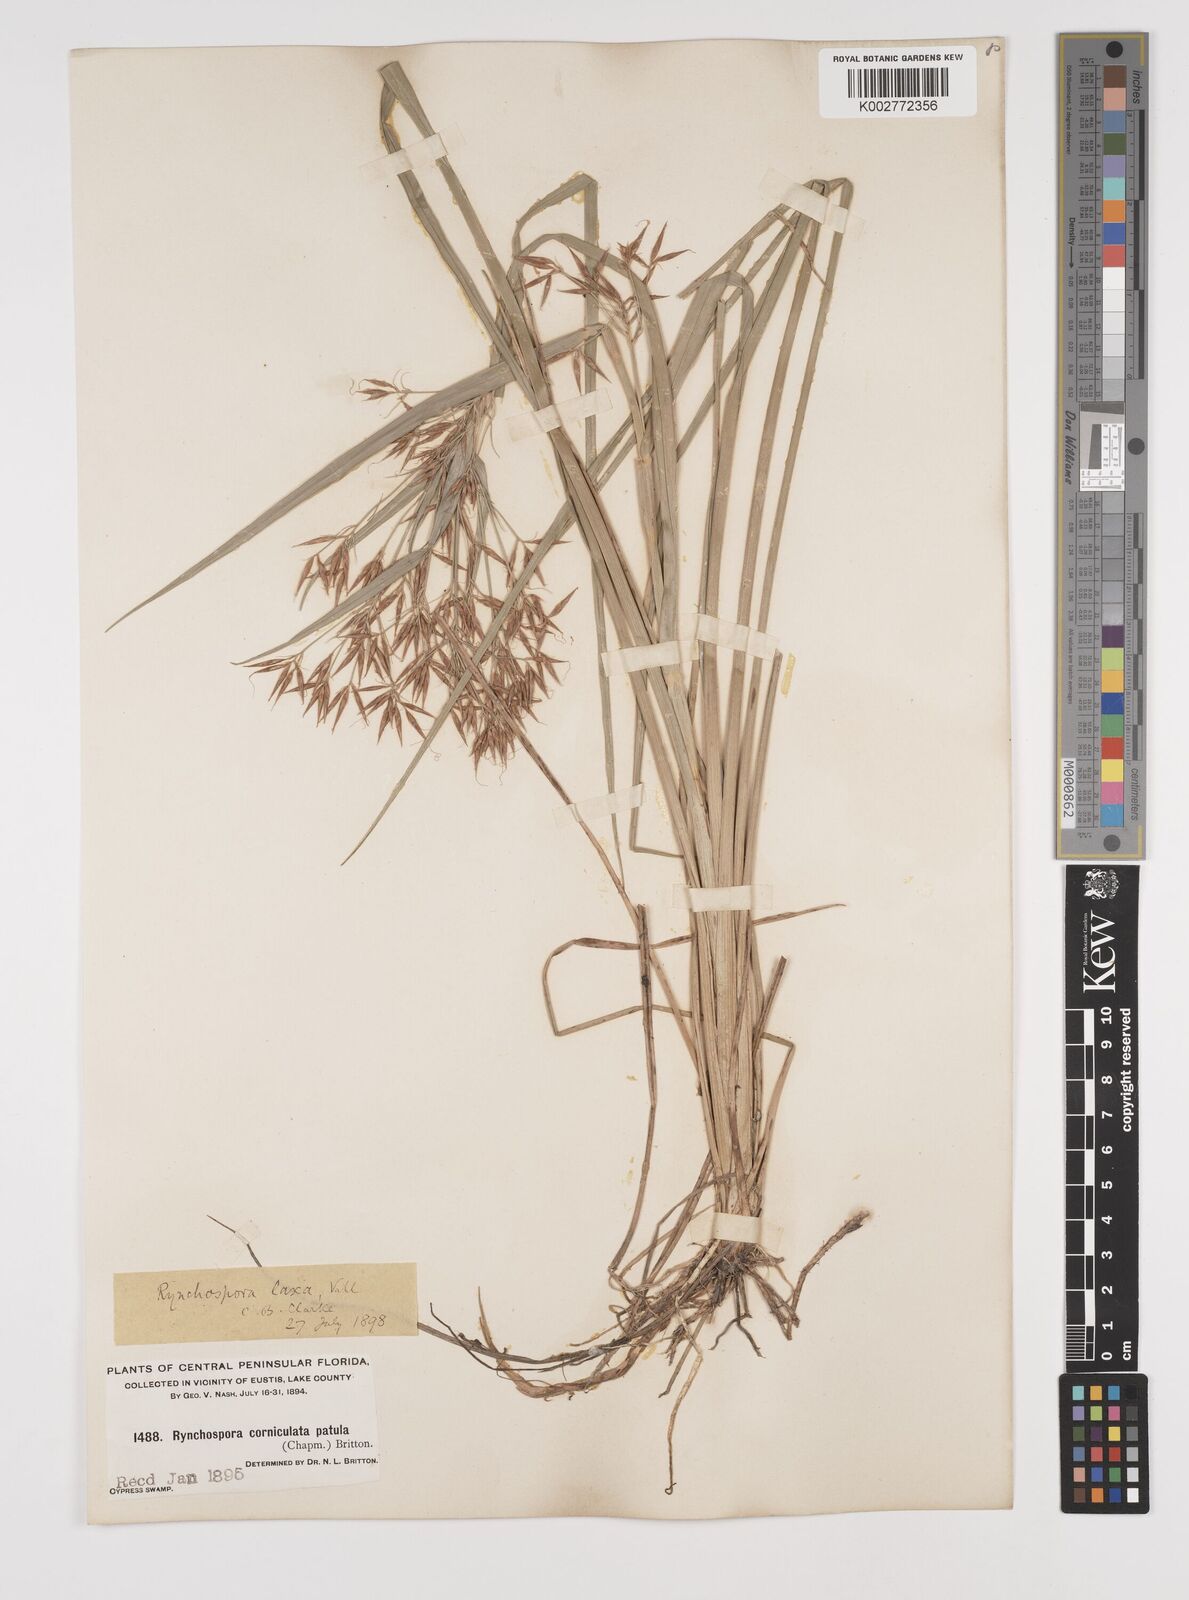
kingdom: Plantae
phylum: Tracheophyta
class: Liliopsida
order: Poales
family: Cyperaceae
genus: Rhynchospora
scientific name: Rhynchospora corniculata
